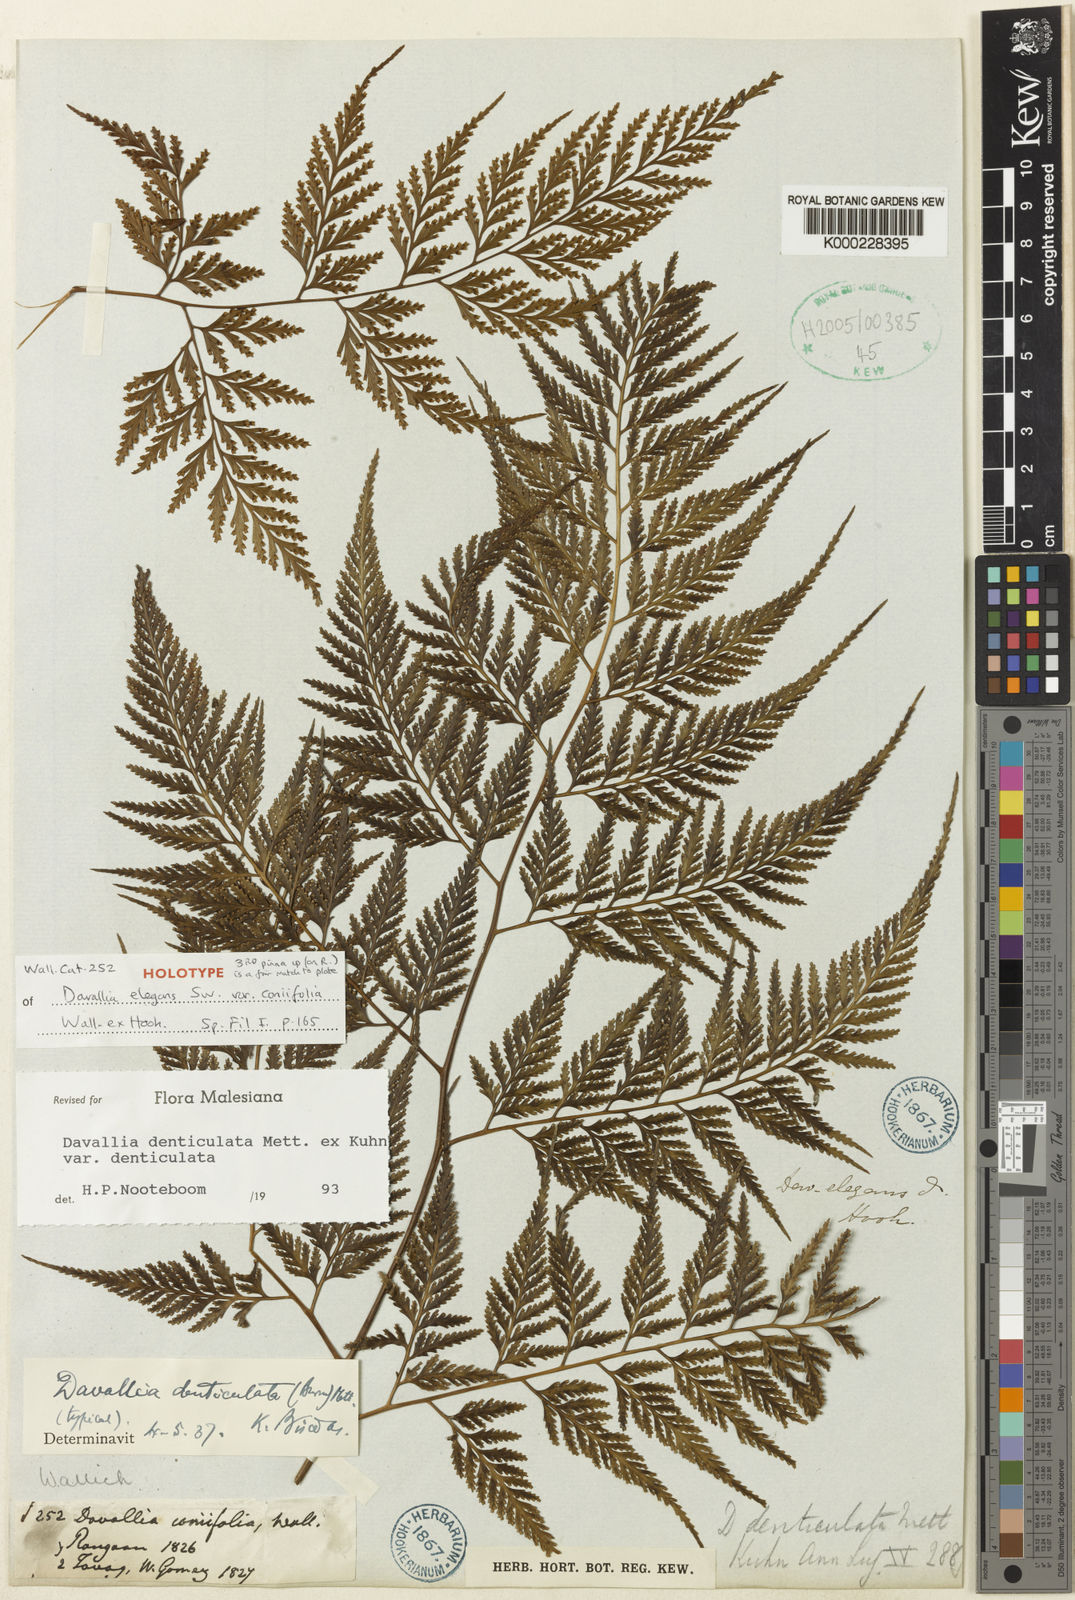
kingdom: Plantae
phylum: Tracheophyta
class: Polypodiopsida
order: Polypodiales
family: Davalliaceae
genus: Davallia
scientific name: Davallia
